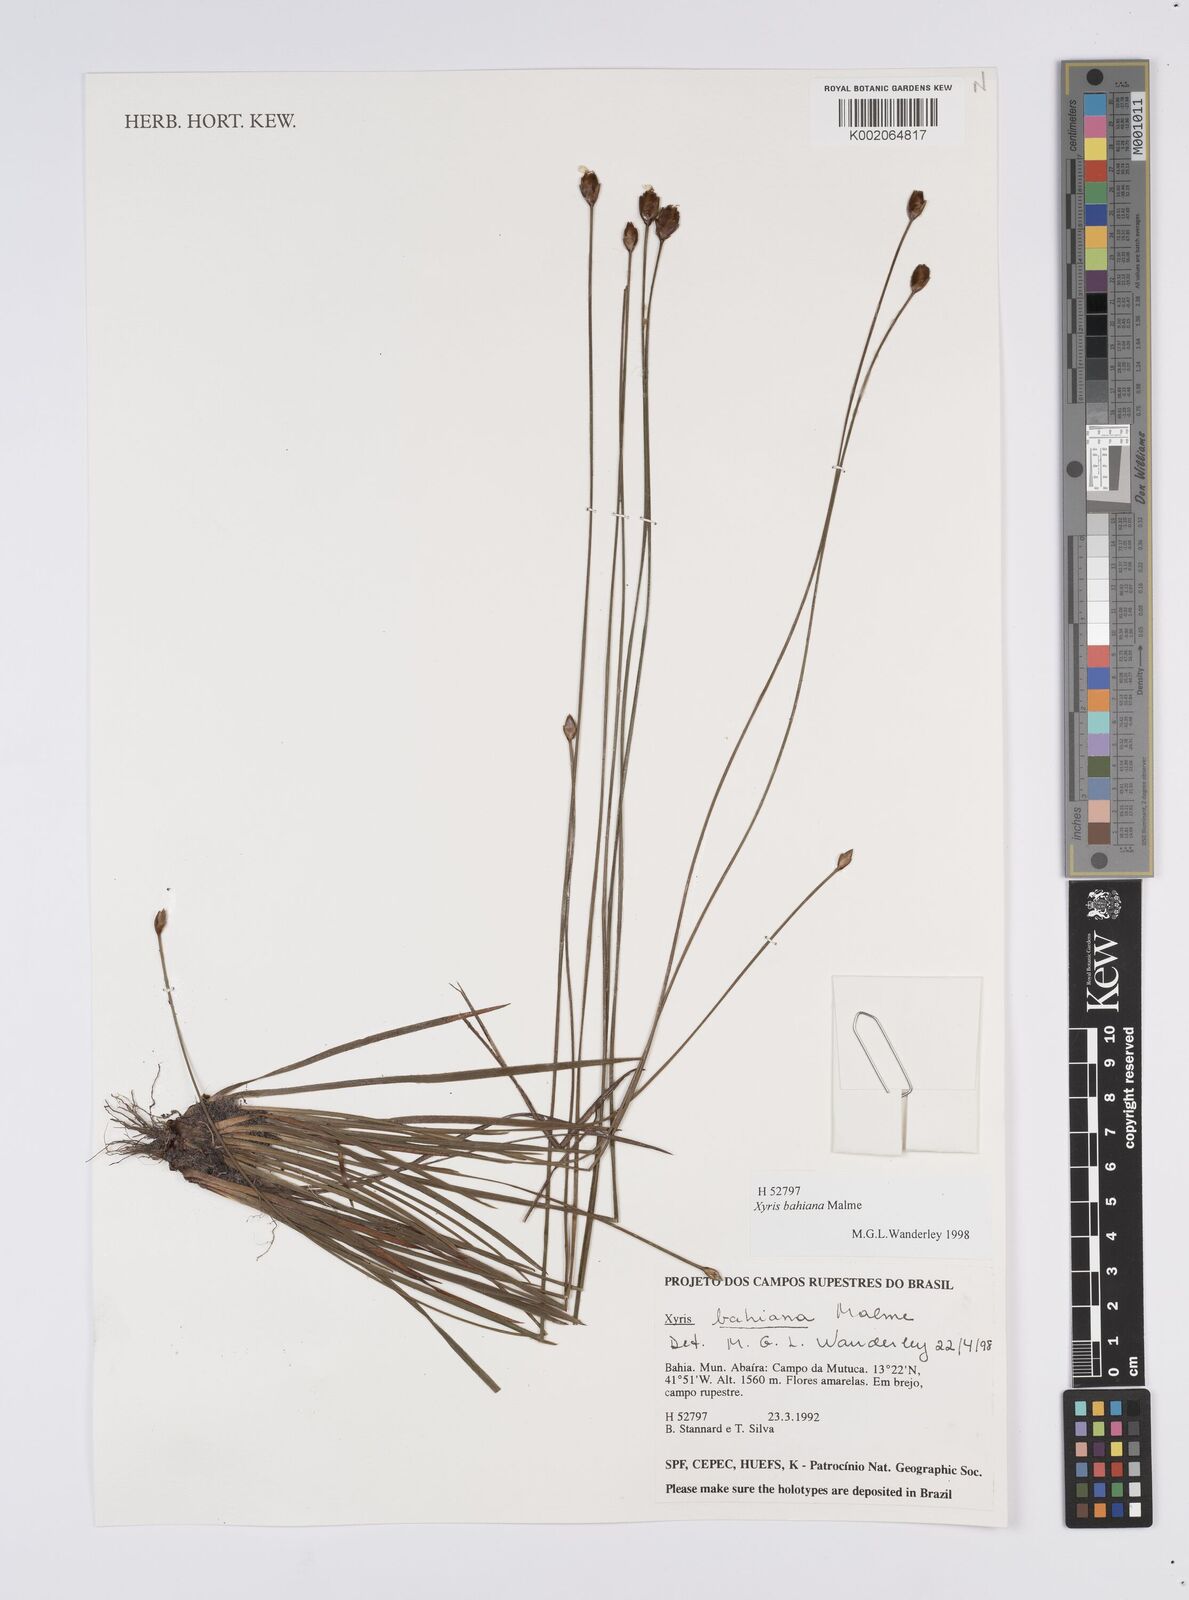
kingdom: Plantae
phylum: Tracheophyta
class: Liliopsida
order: Poales
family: Xyridaceae
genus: Xyris
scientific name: Xyris bahiana
